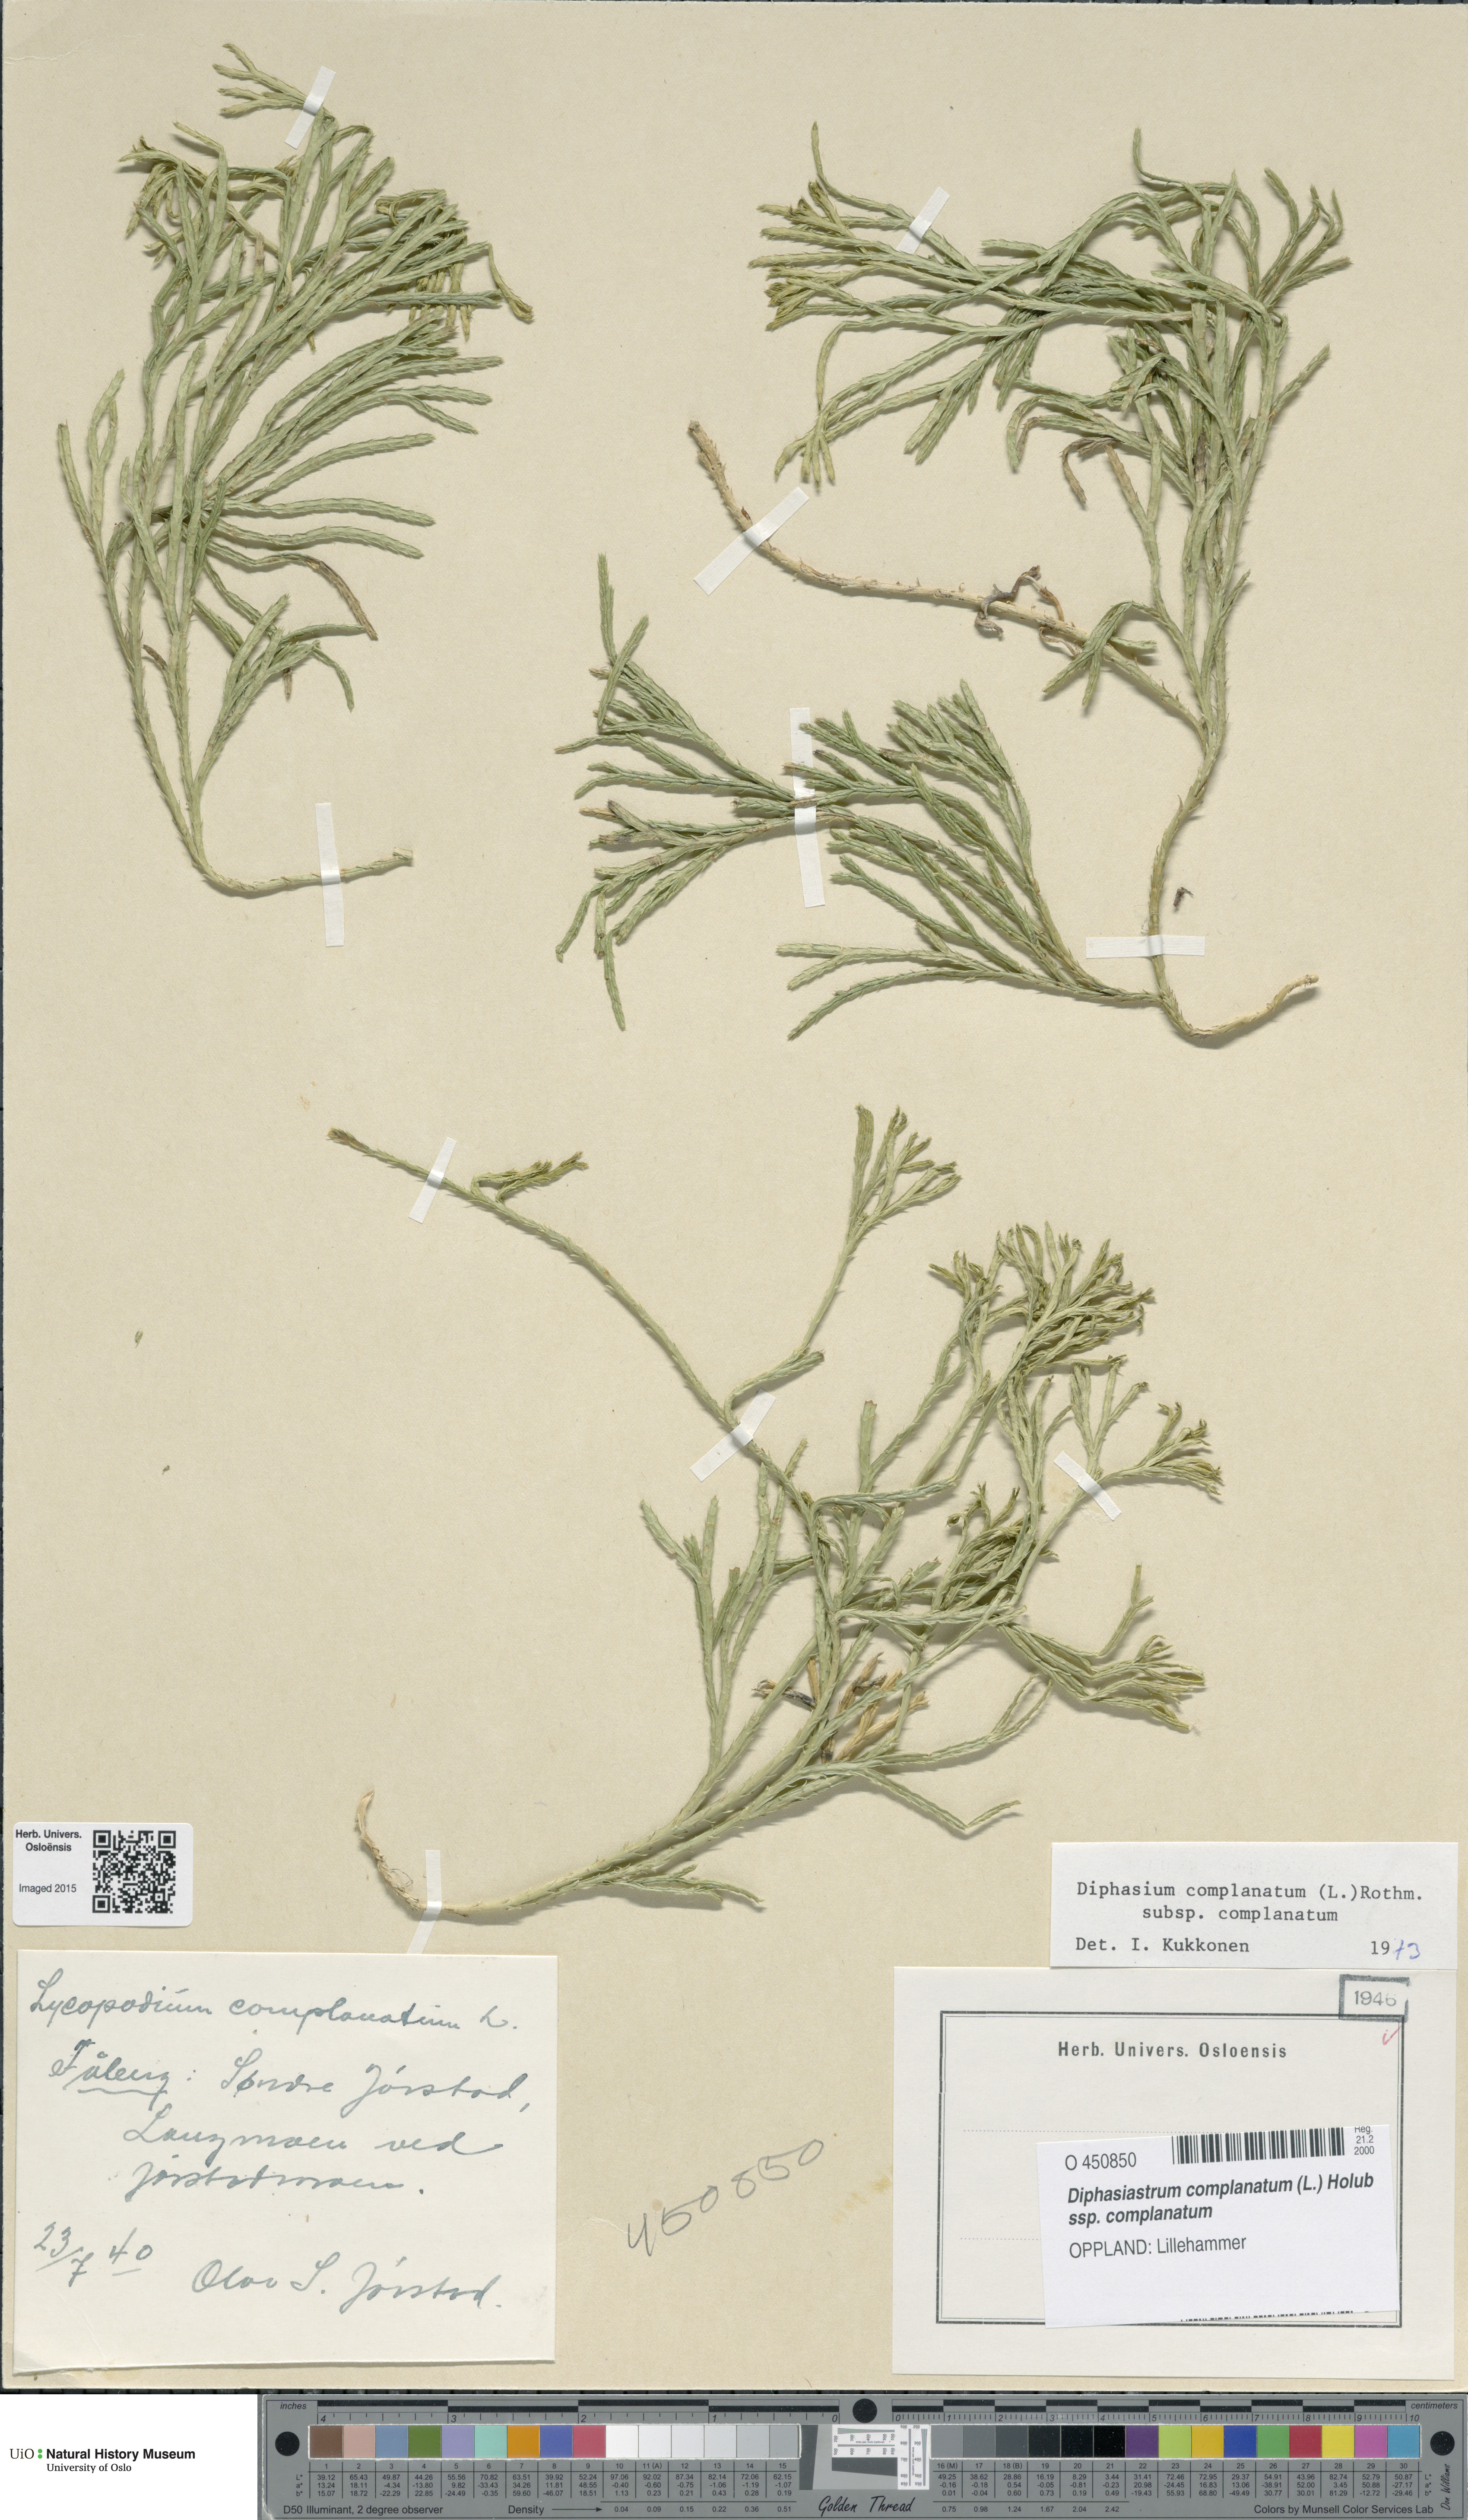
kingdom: Plantae
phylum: Tracheophyta
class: Lycopodiopsida
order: Lycopodiales
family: Lycopodiaceae
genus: Diphasiastrum
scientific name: Diphasiastrum complanatum
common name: Northern running-pine
